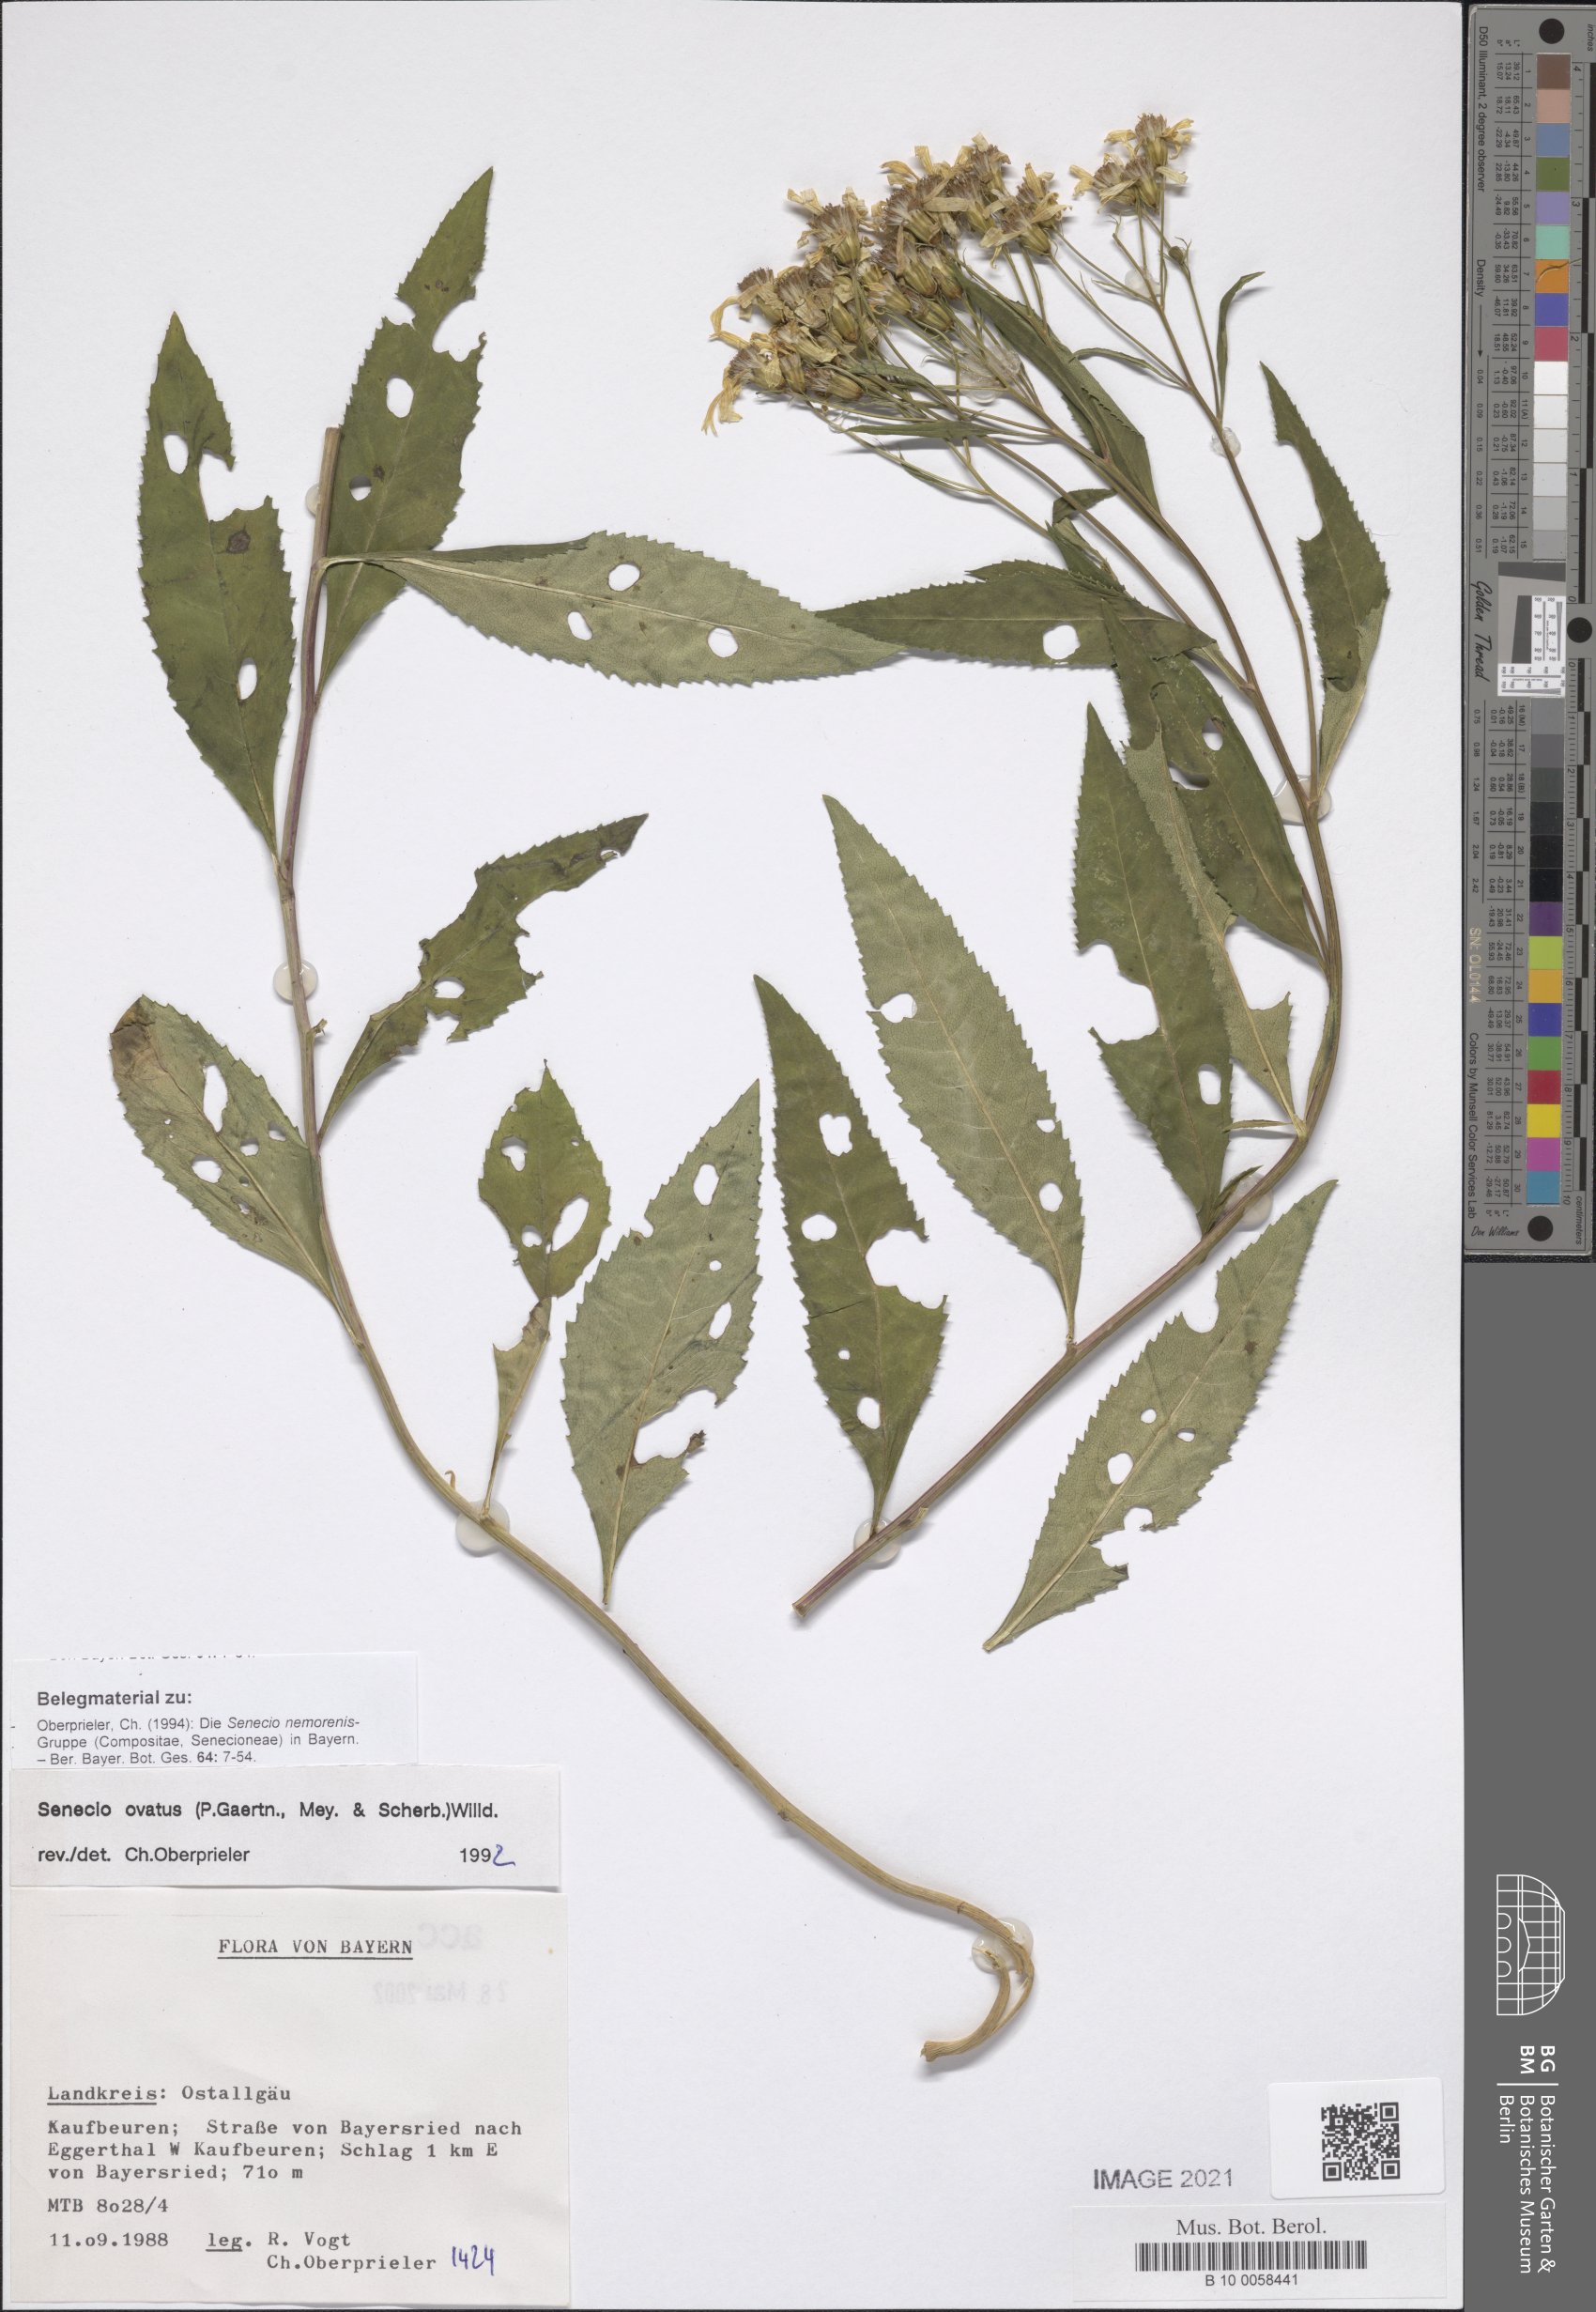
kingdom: Plantae
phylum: Tracheophyta
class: Magnoliopsida
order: Asterales
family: Asteraceae
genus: Senecio
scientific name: Senecio ovatus
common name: Wood ragwort
